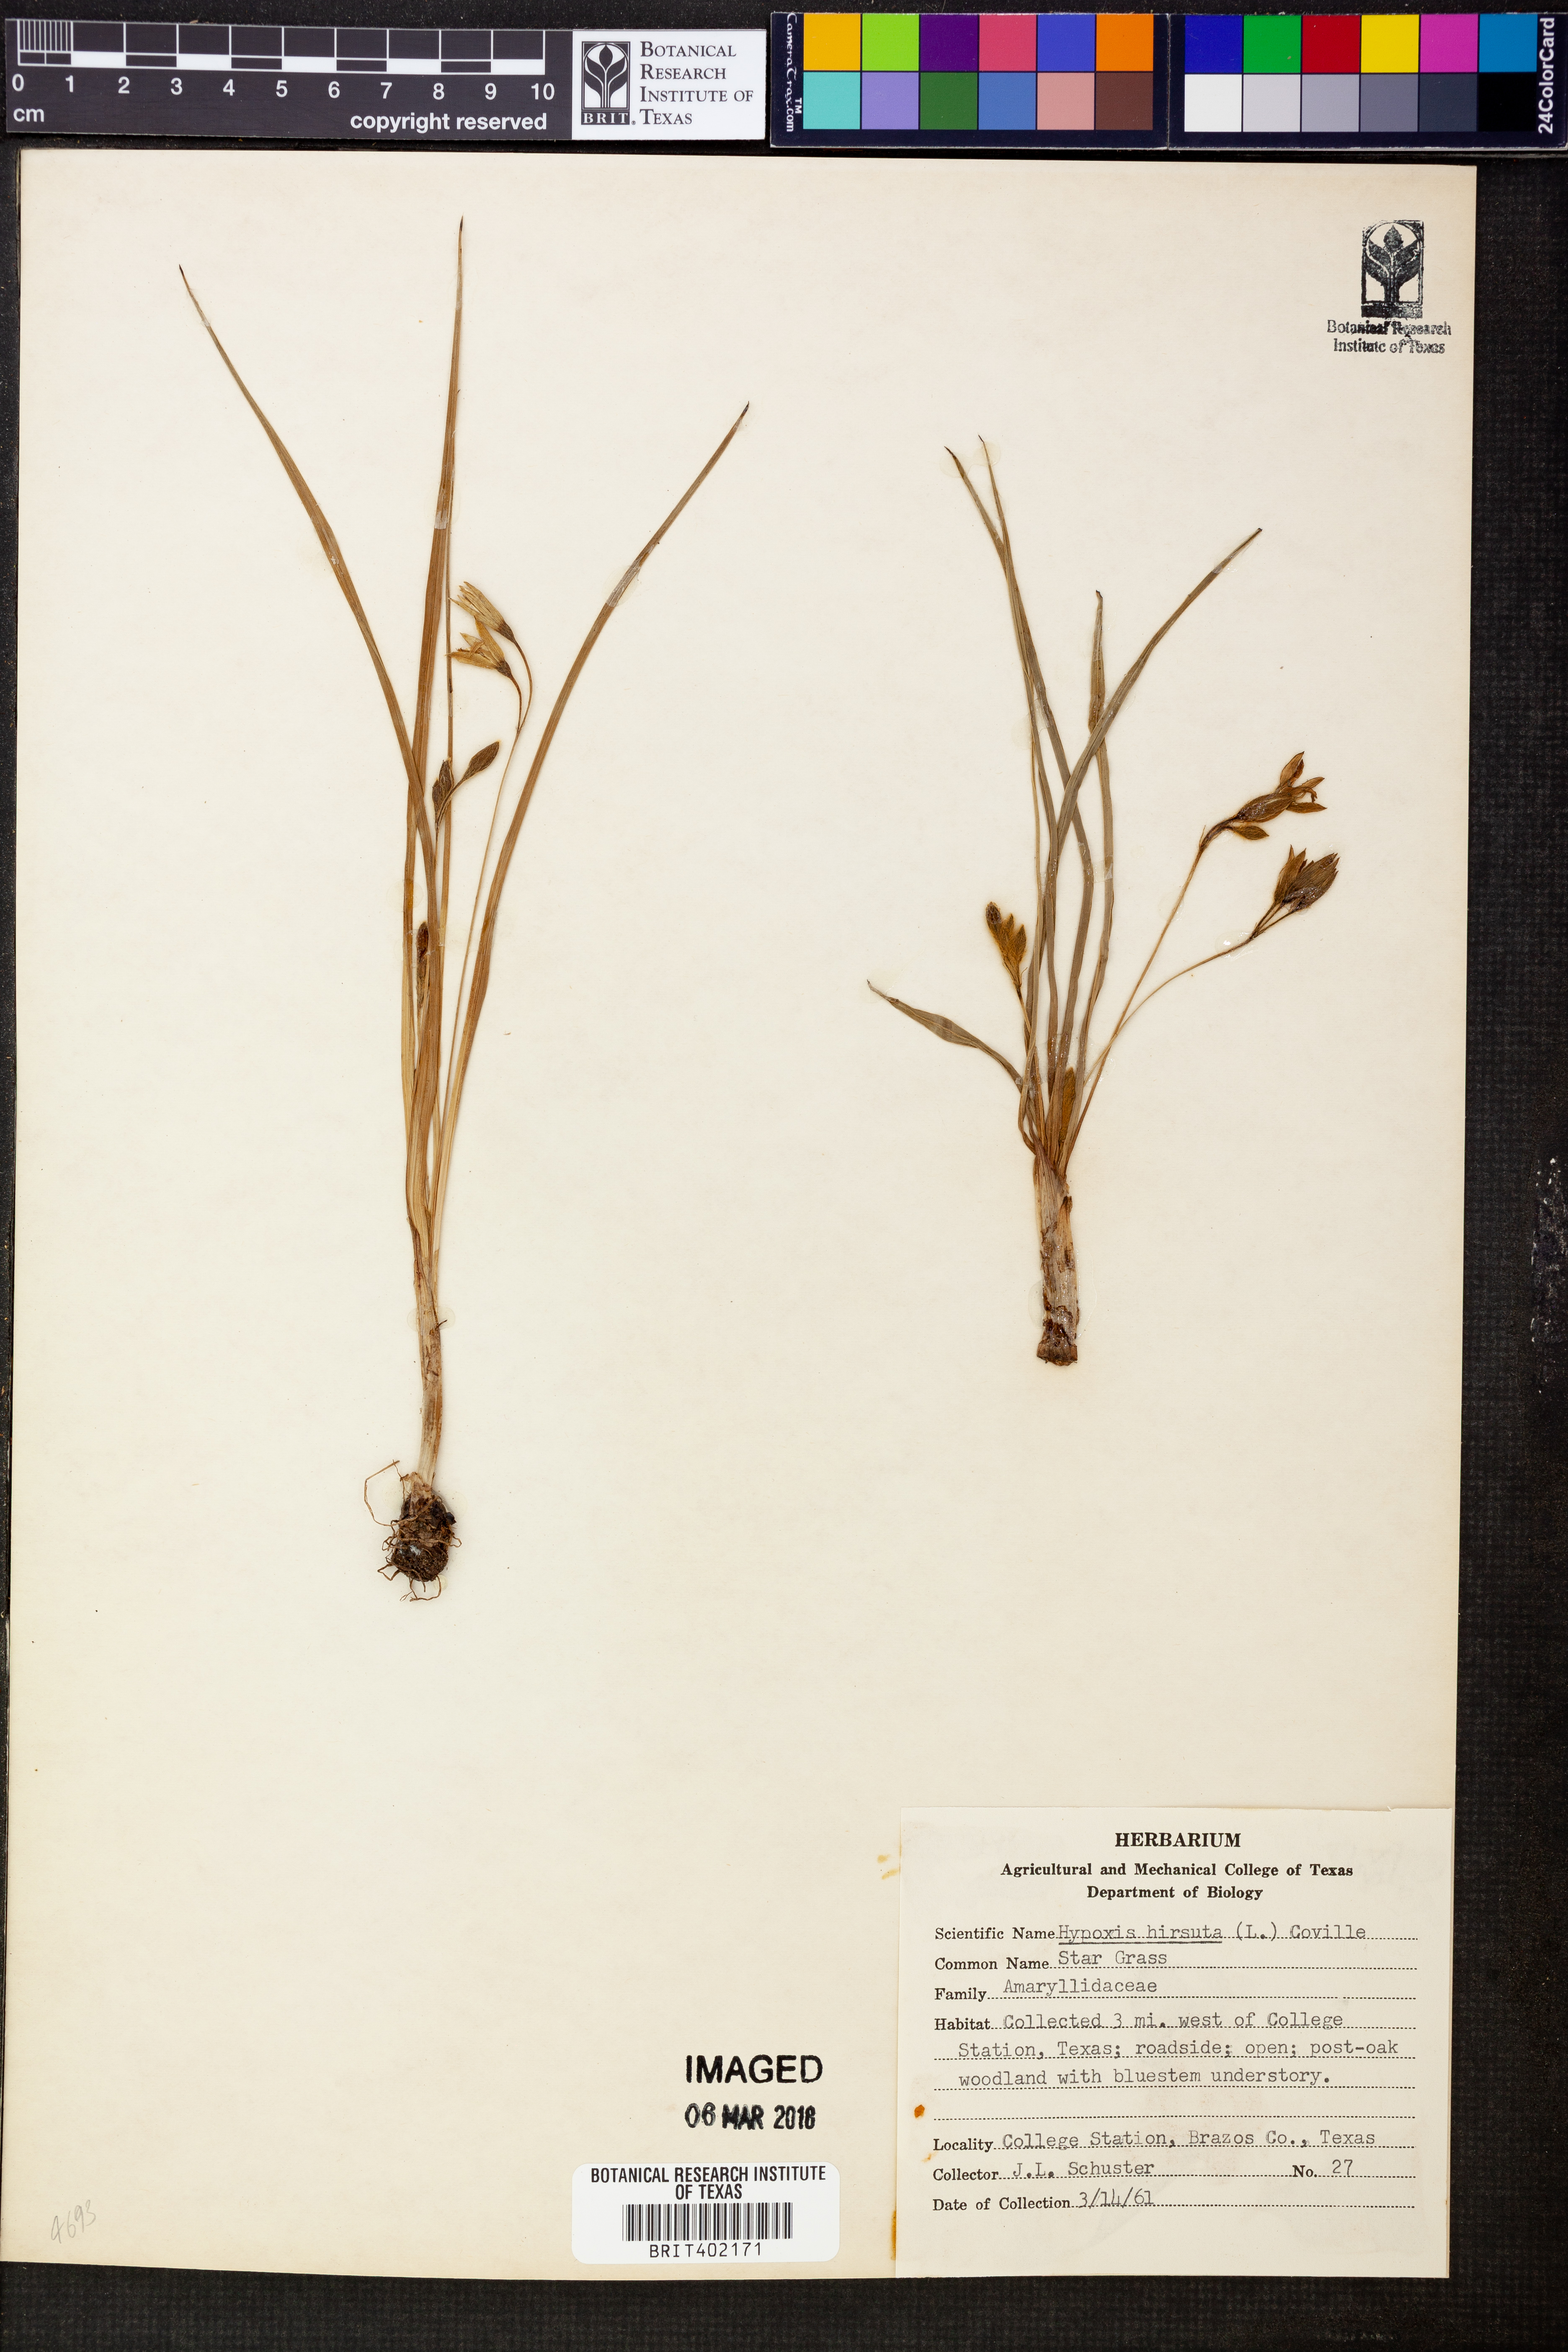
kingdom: Plantae
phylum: Tracheophyta
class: Liliopsida
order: Asparagales
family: Hypoxidaceae
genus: Hypoxis
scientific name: Hypoxis hirsuta
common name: Common goldstar
